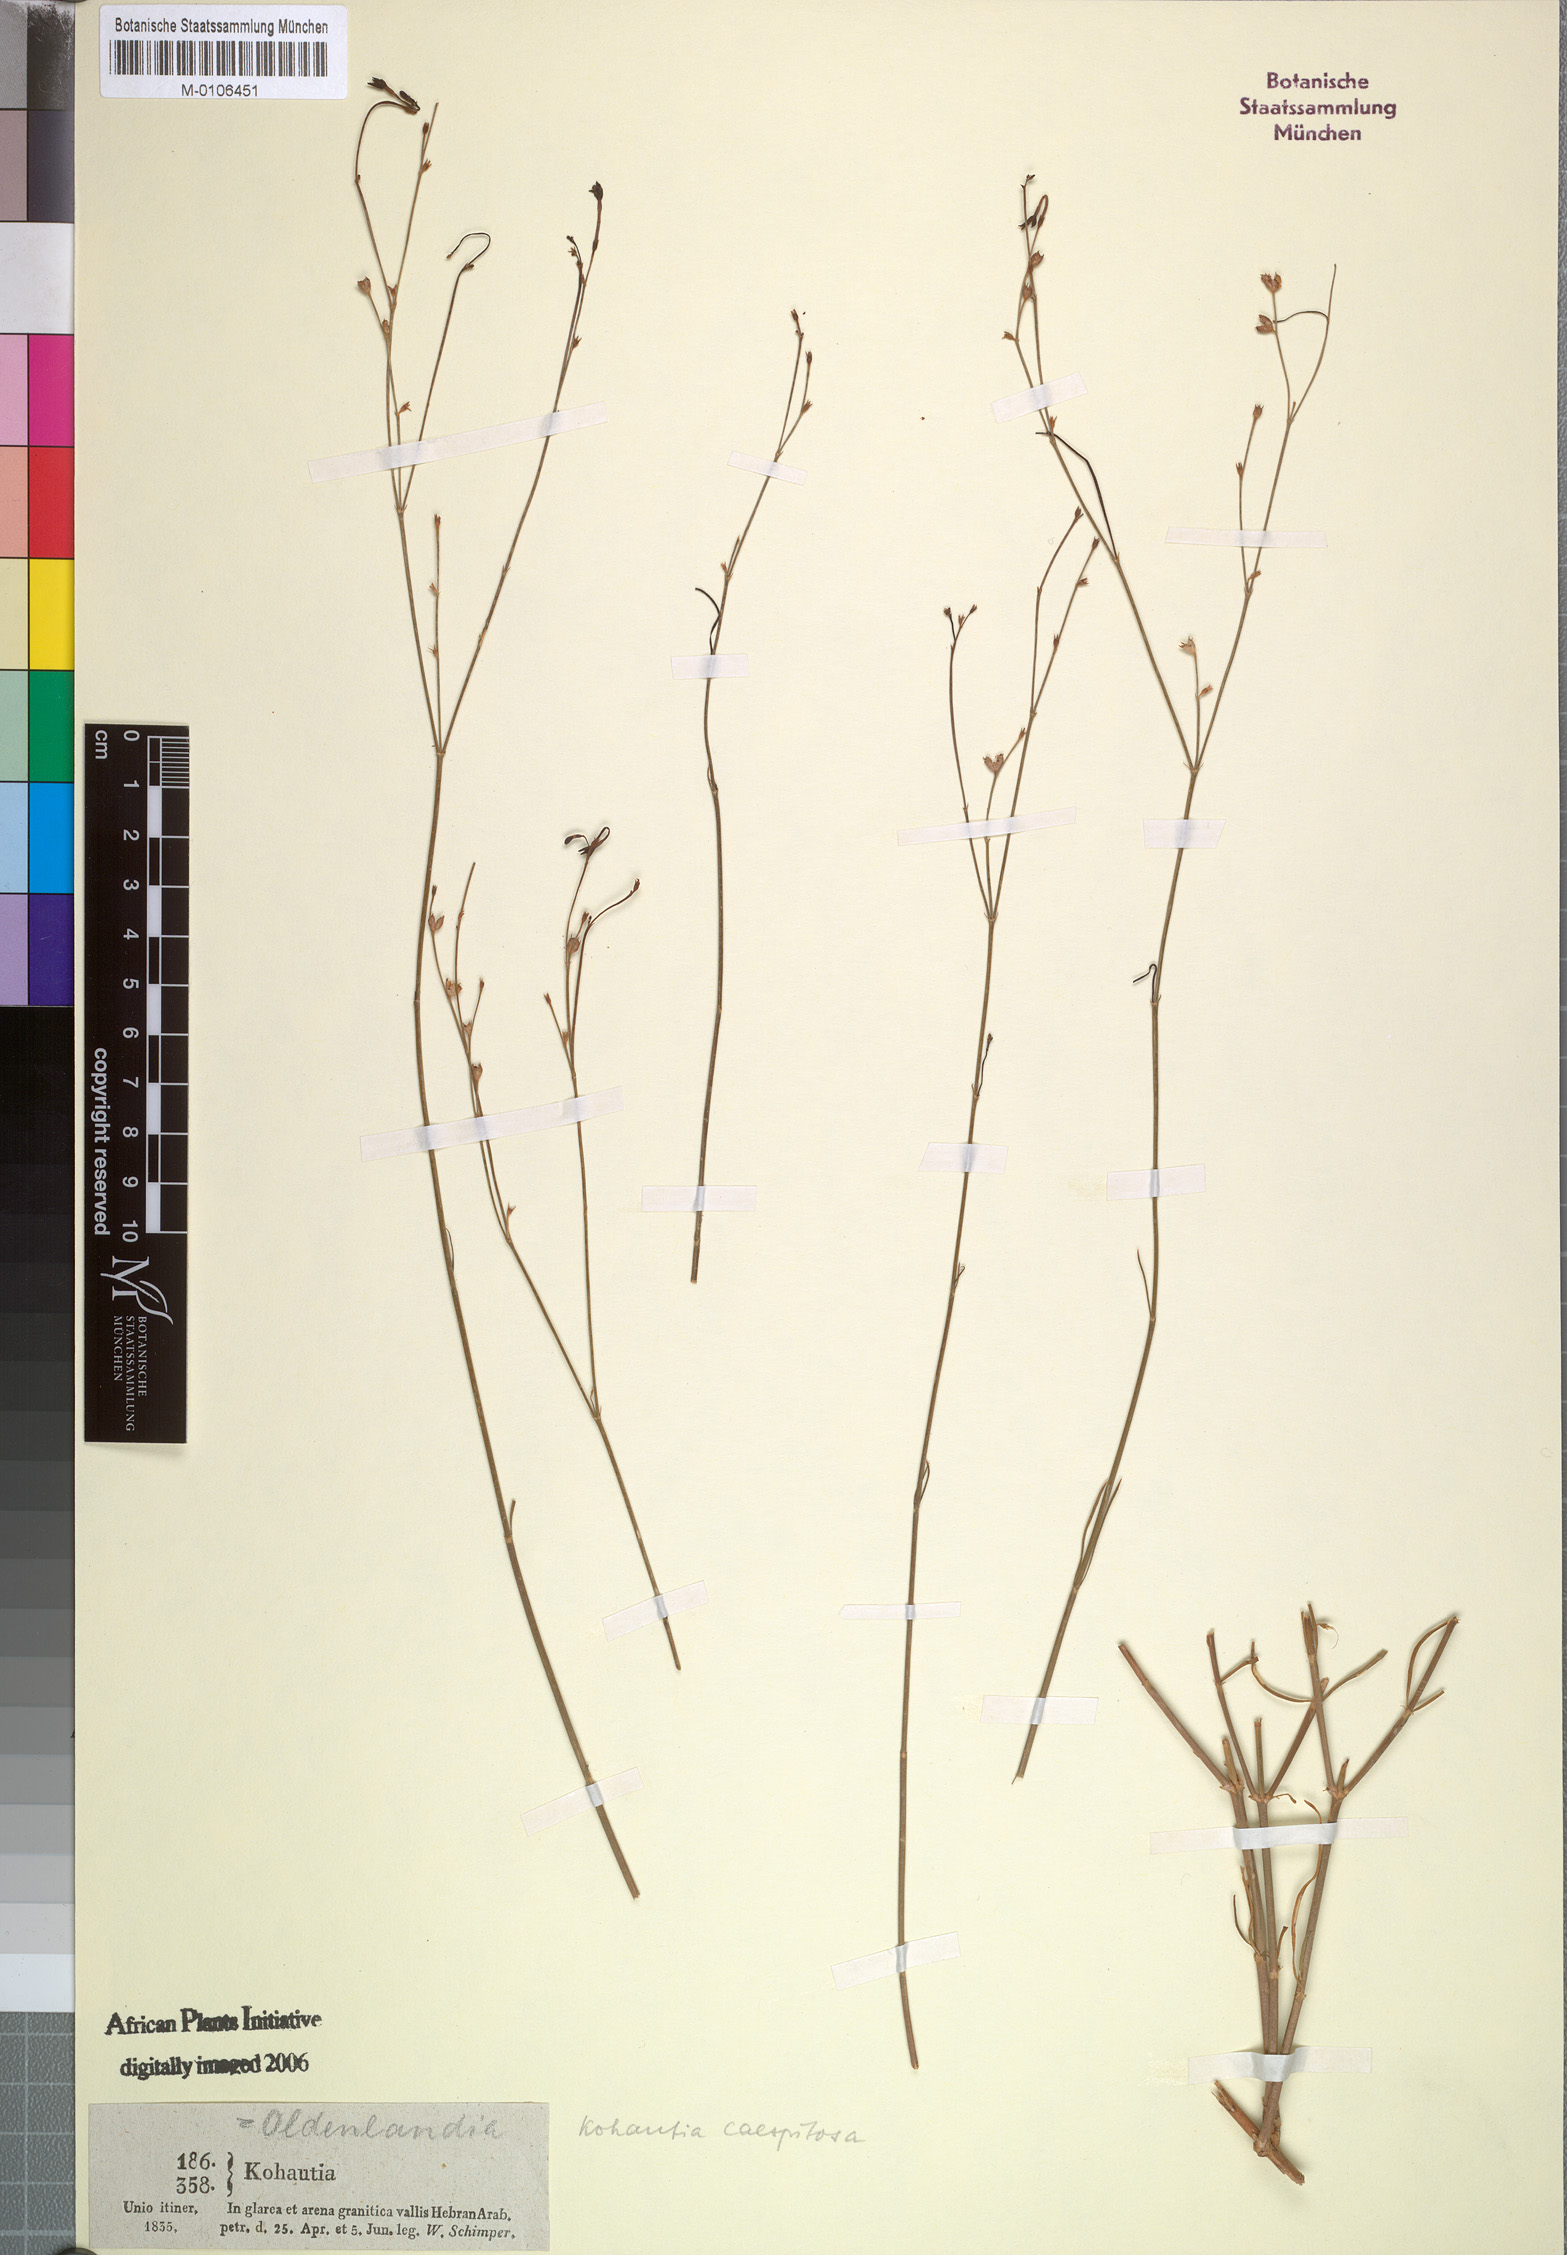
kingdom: Plantae
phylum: Tracheophyta
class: Magnoliopsida
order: Gentianales
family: Rubiaceae
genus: Kohautia
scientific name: Kohautia caespitosa
